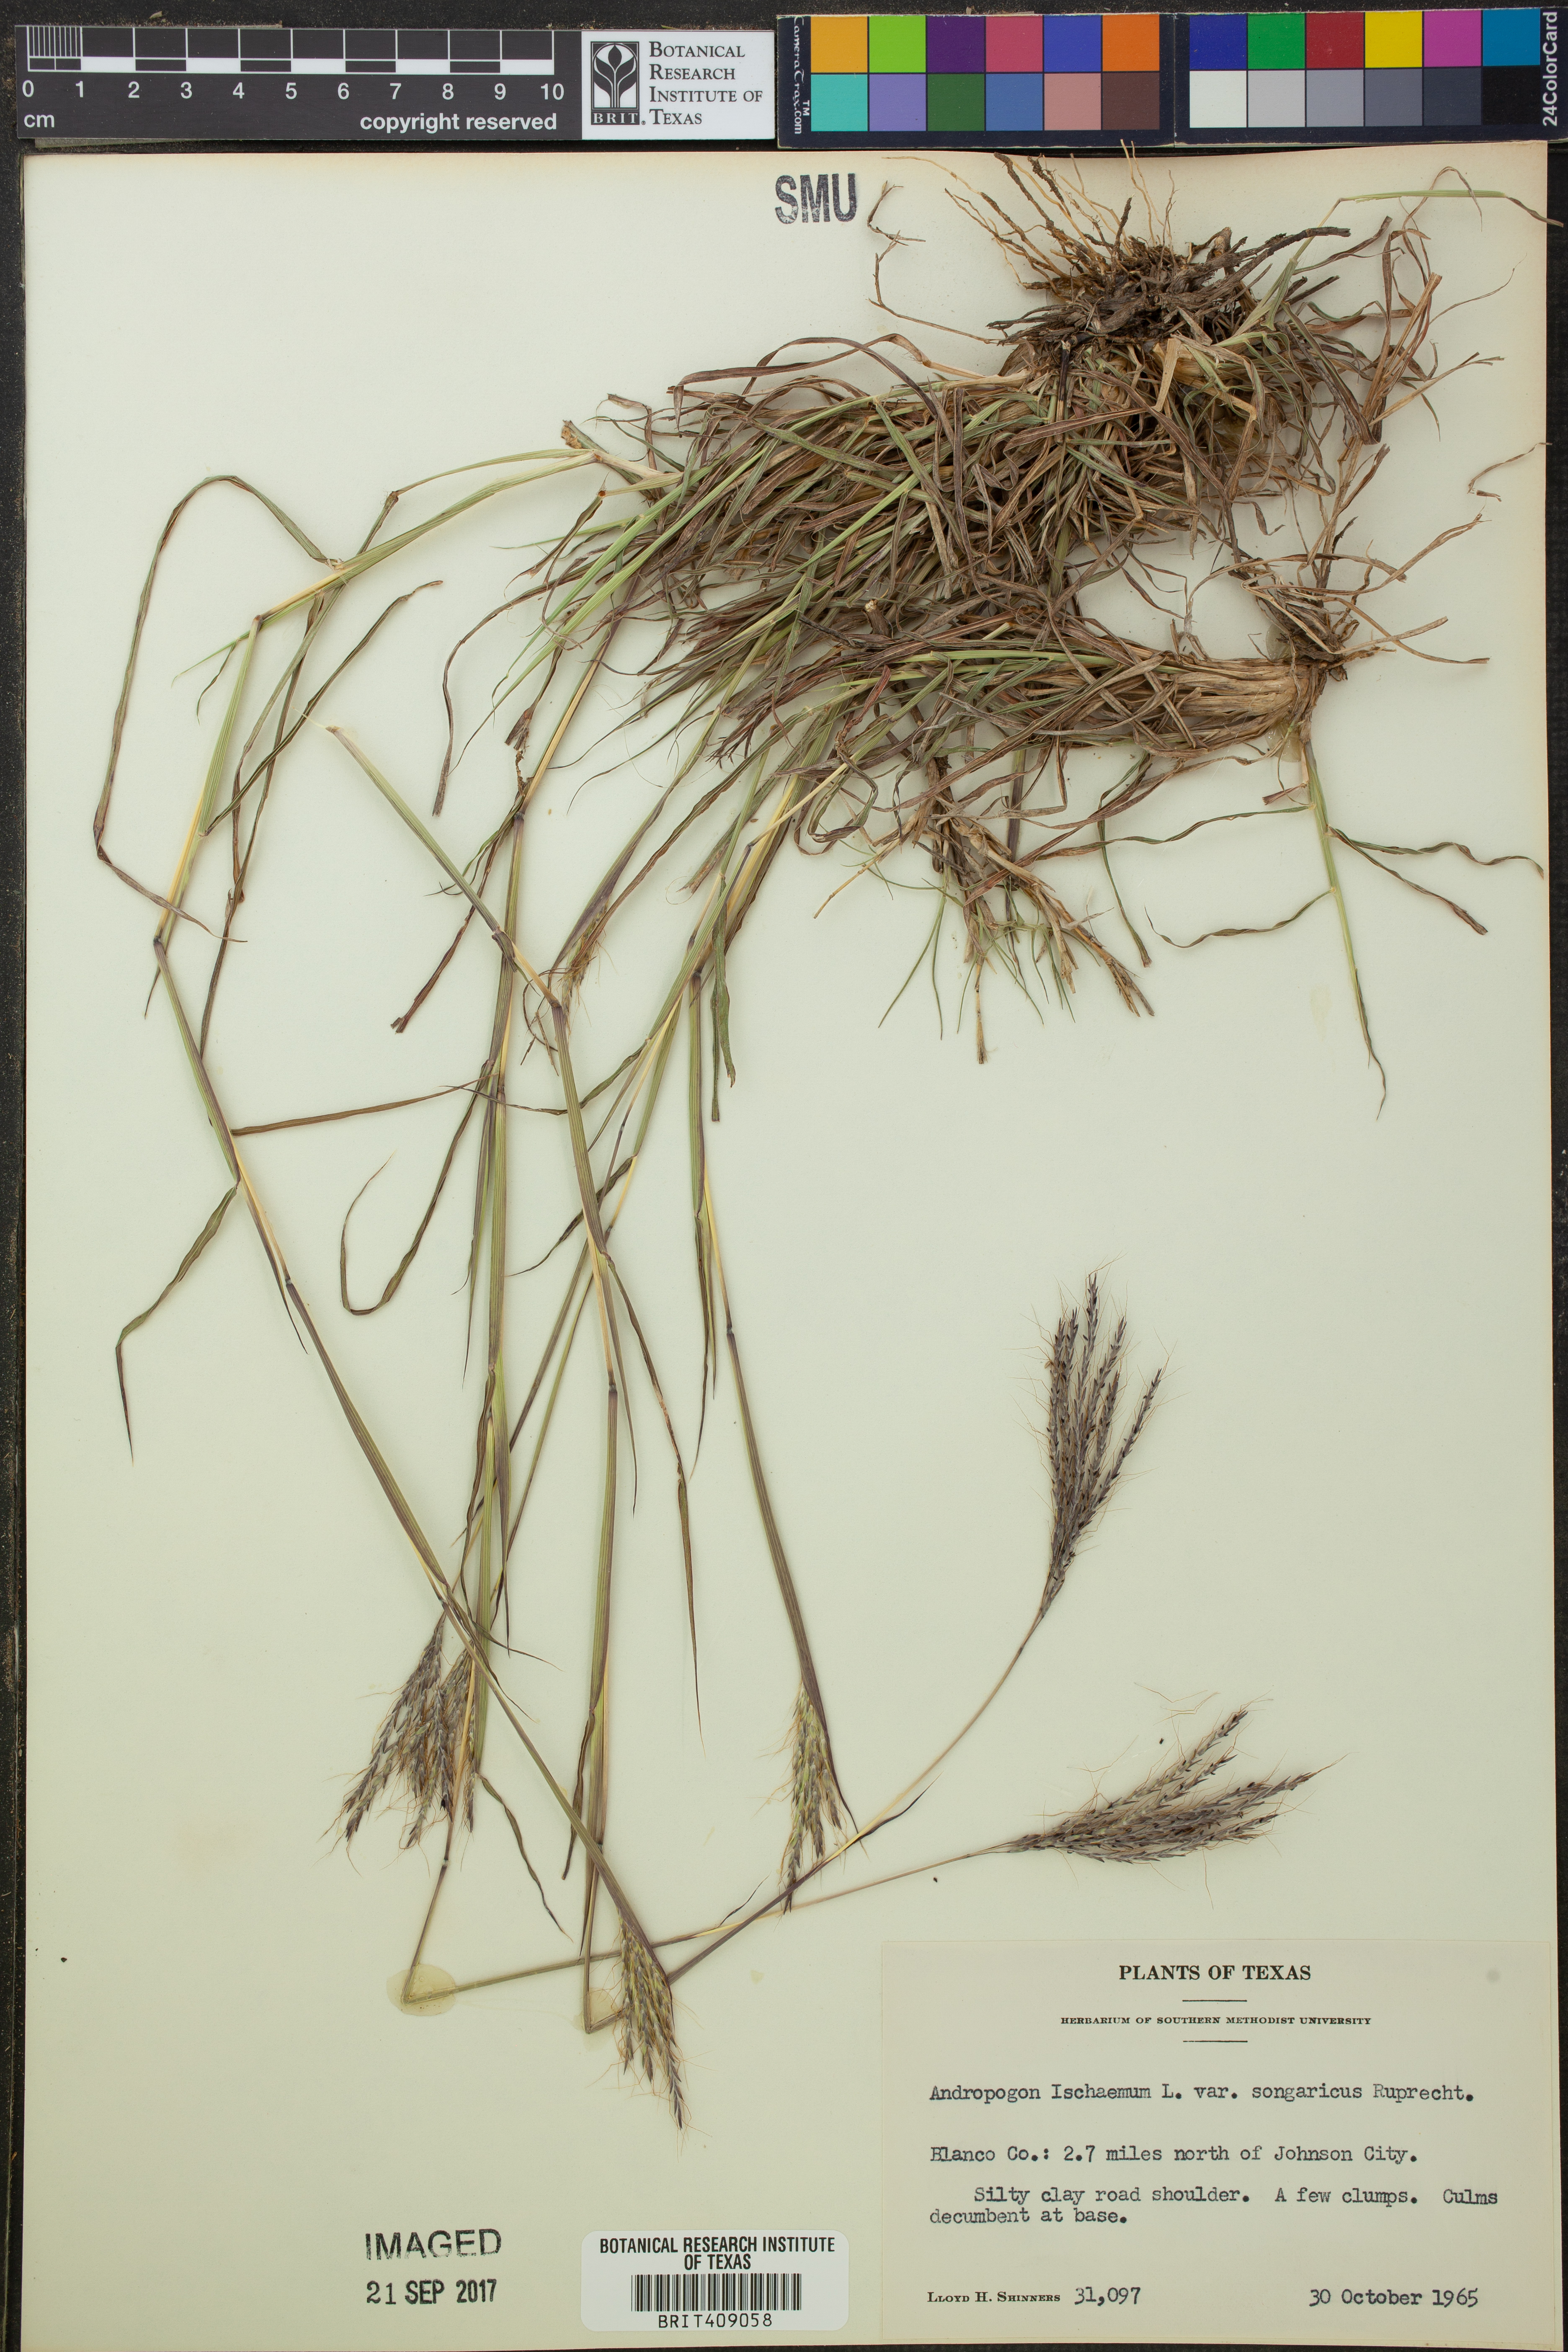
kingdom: Plantae
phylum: Tracheophyta
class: Liliopsida
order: Poales
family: Poaceae
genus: Bothriochloa
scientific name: Bothriochloa ischaemum
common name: Yellow bluestem
